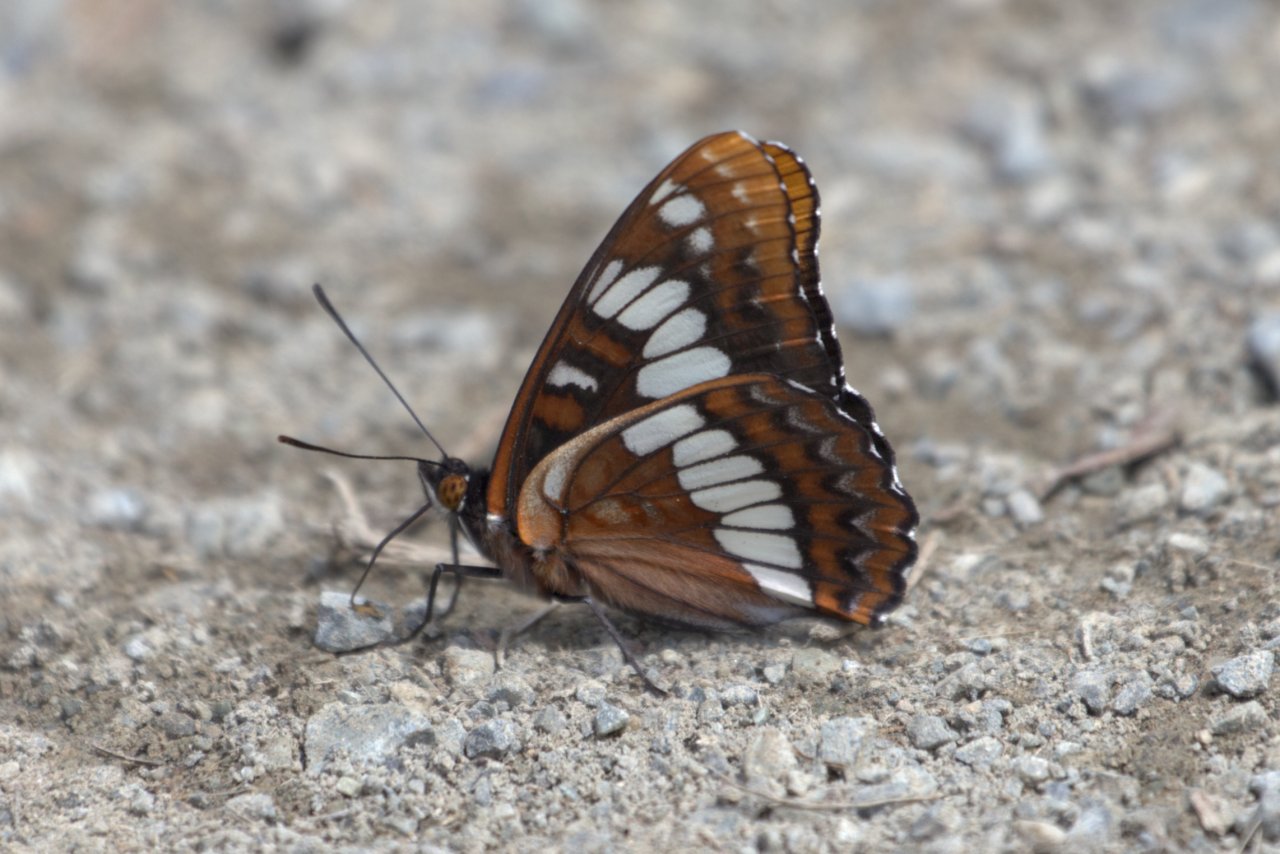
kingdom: Animalia
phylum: Arthropoda
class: Insecta
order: Lepidoptera
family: Nymphalidae
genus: Limenitis
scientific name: Limenitis lorquini
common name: Lorquin's Admiral
